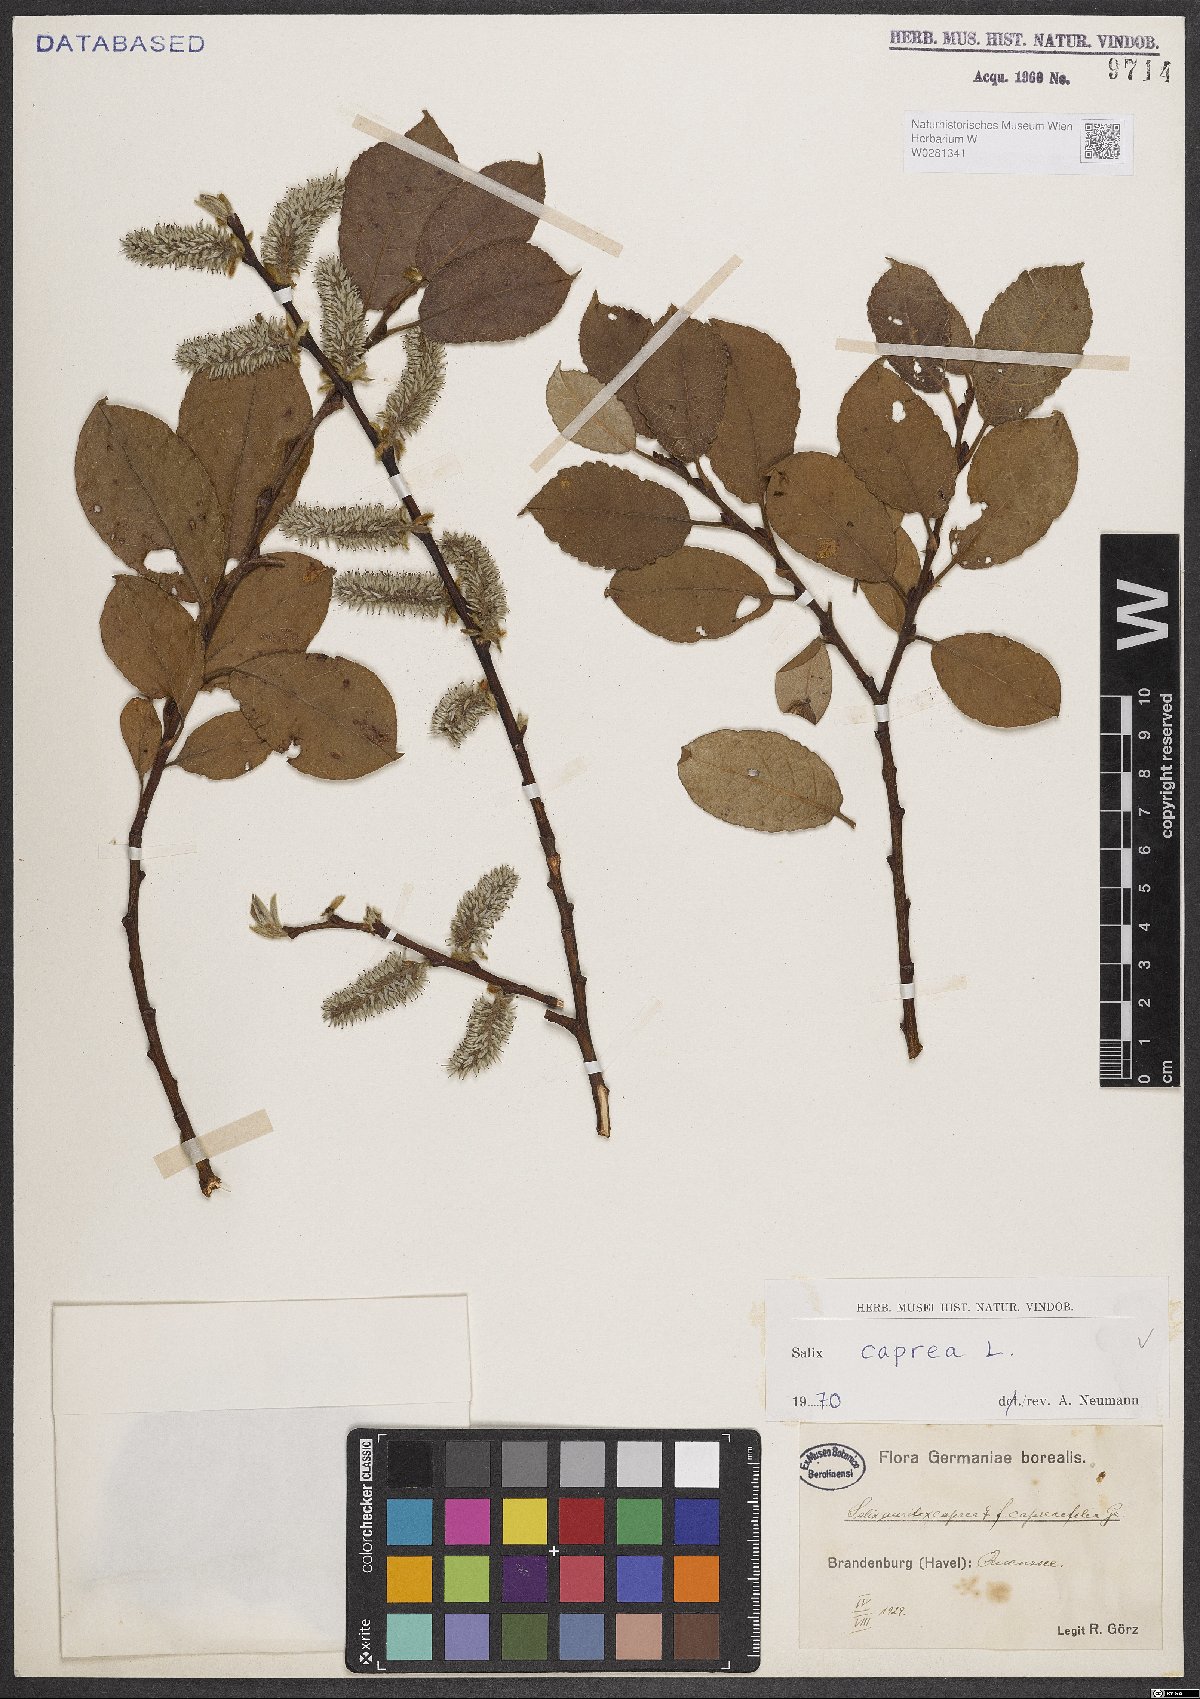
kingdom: Plantae
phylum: Tracheophyta
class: Magnoliopsida
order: Malpighiales
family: Salicaceae
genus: Salix
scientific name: Salix caprea
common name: Goat willow
